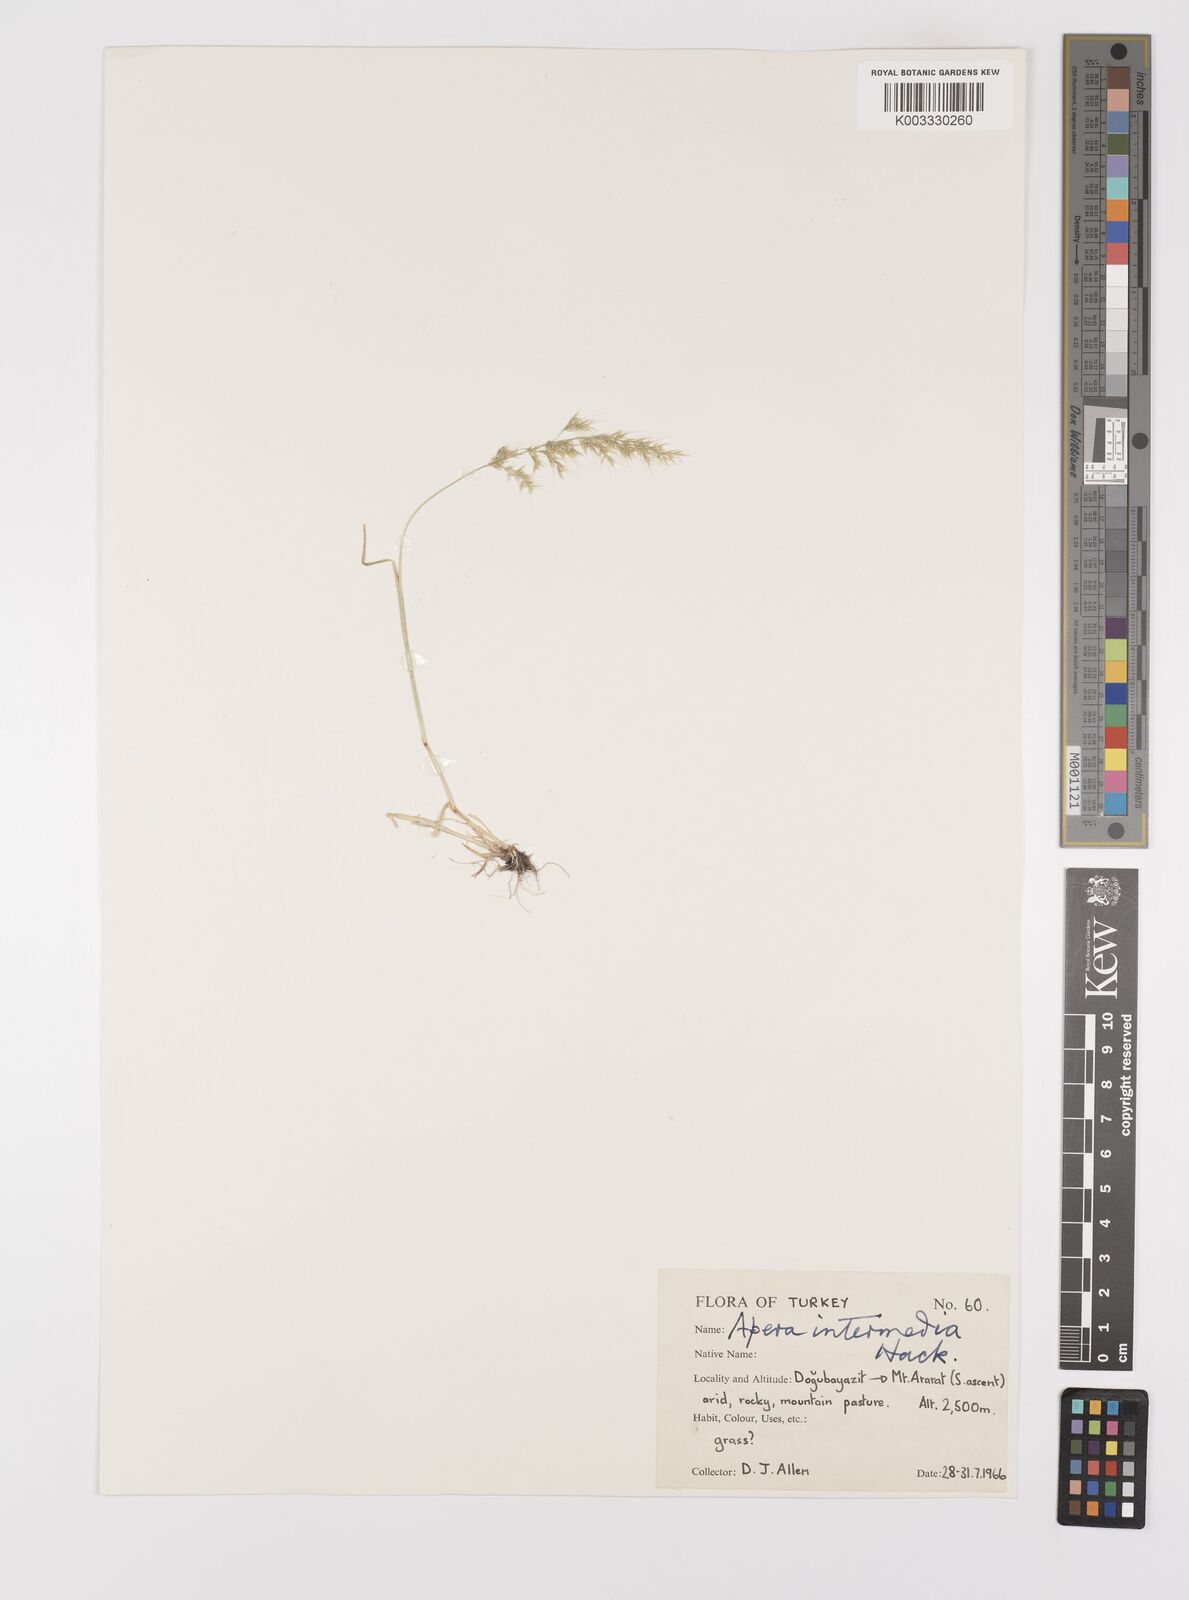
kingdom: Plantae
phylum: Tracheophyta
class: Liliopsida
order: Poales
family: Poaceae
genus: Apera
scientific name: Apera interrupta
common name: Dense silky-bent
